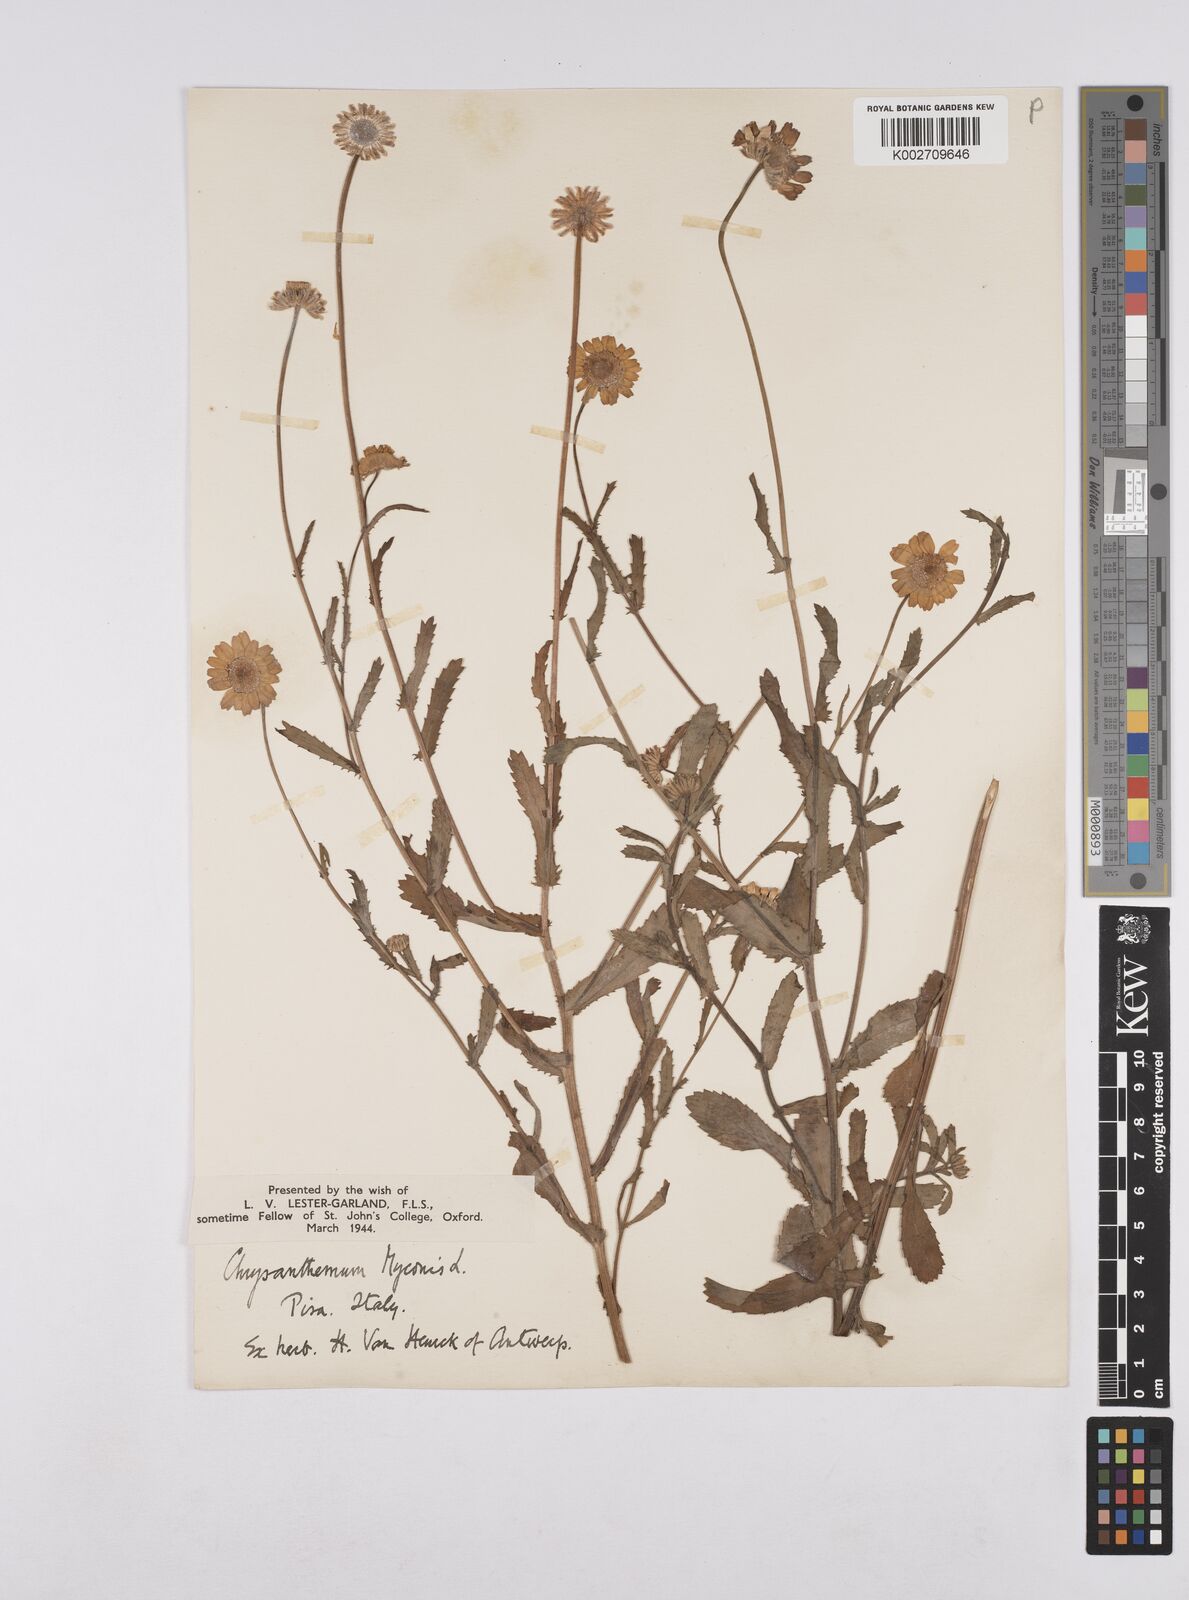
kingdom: Plantae
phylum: Tracheophyta
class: Magnoliopsida
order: Asterales
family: Asteraceae
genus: Coleostephus
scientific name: Coleostephus myconis
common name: Mediterranean marigold
